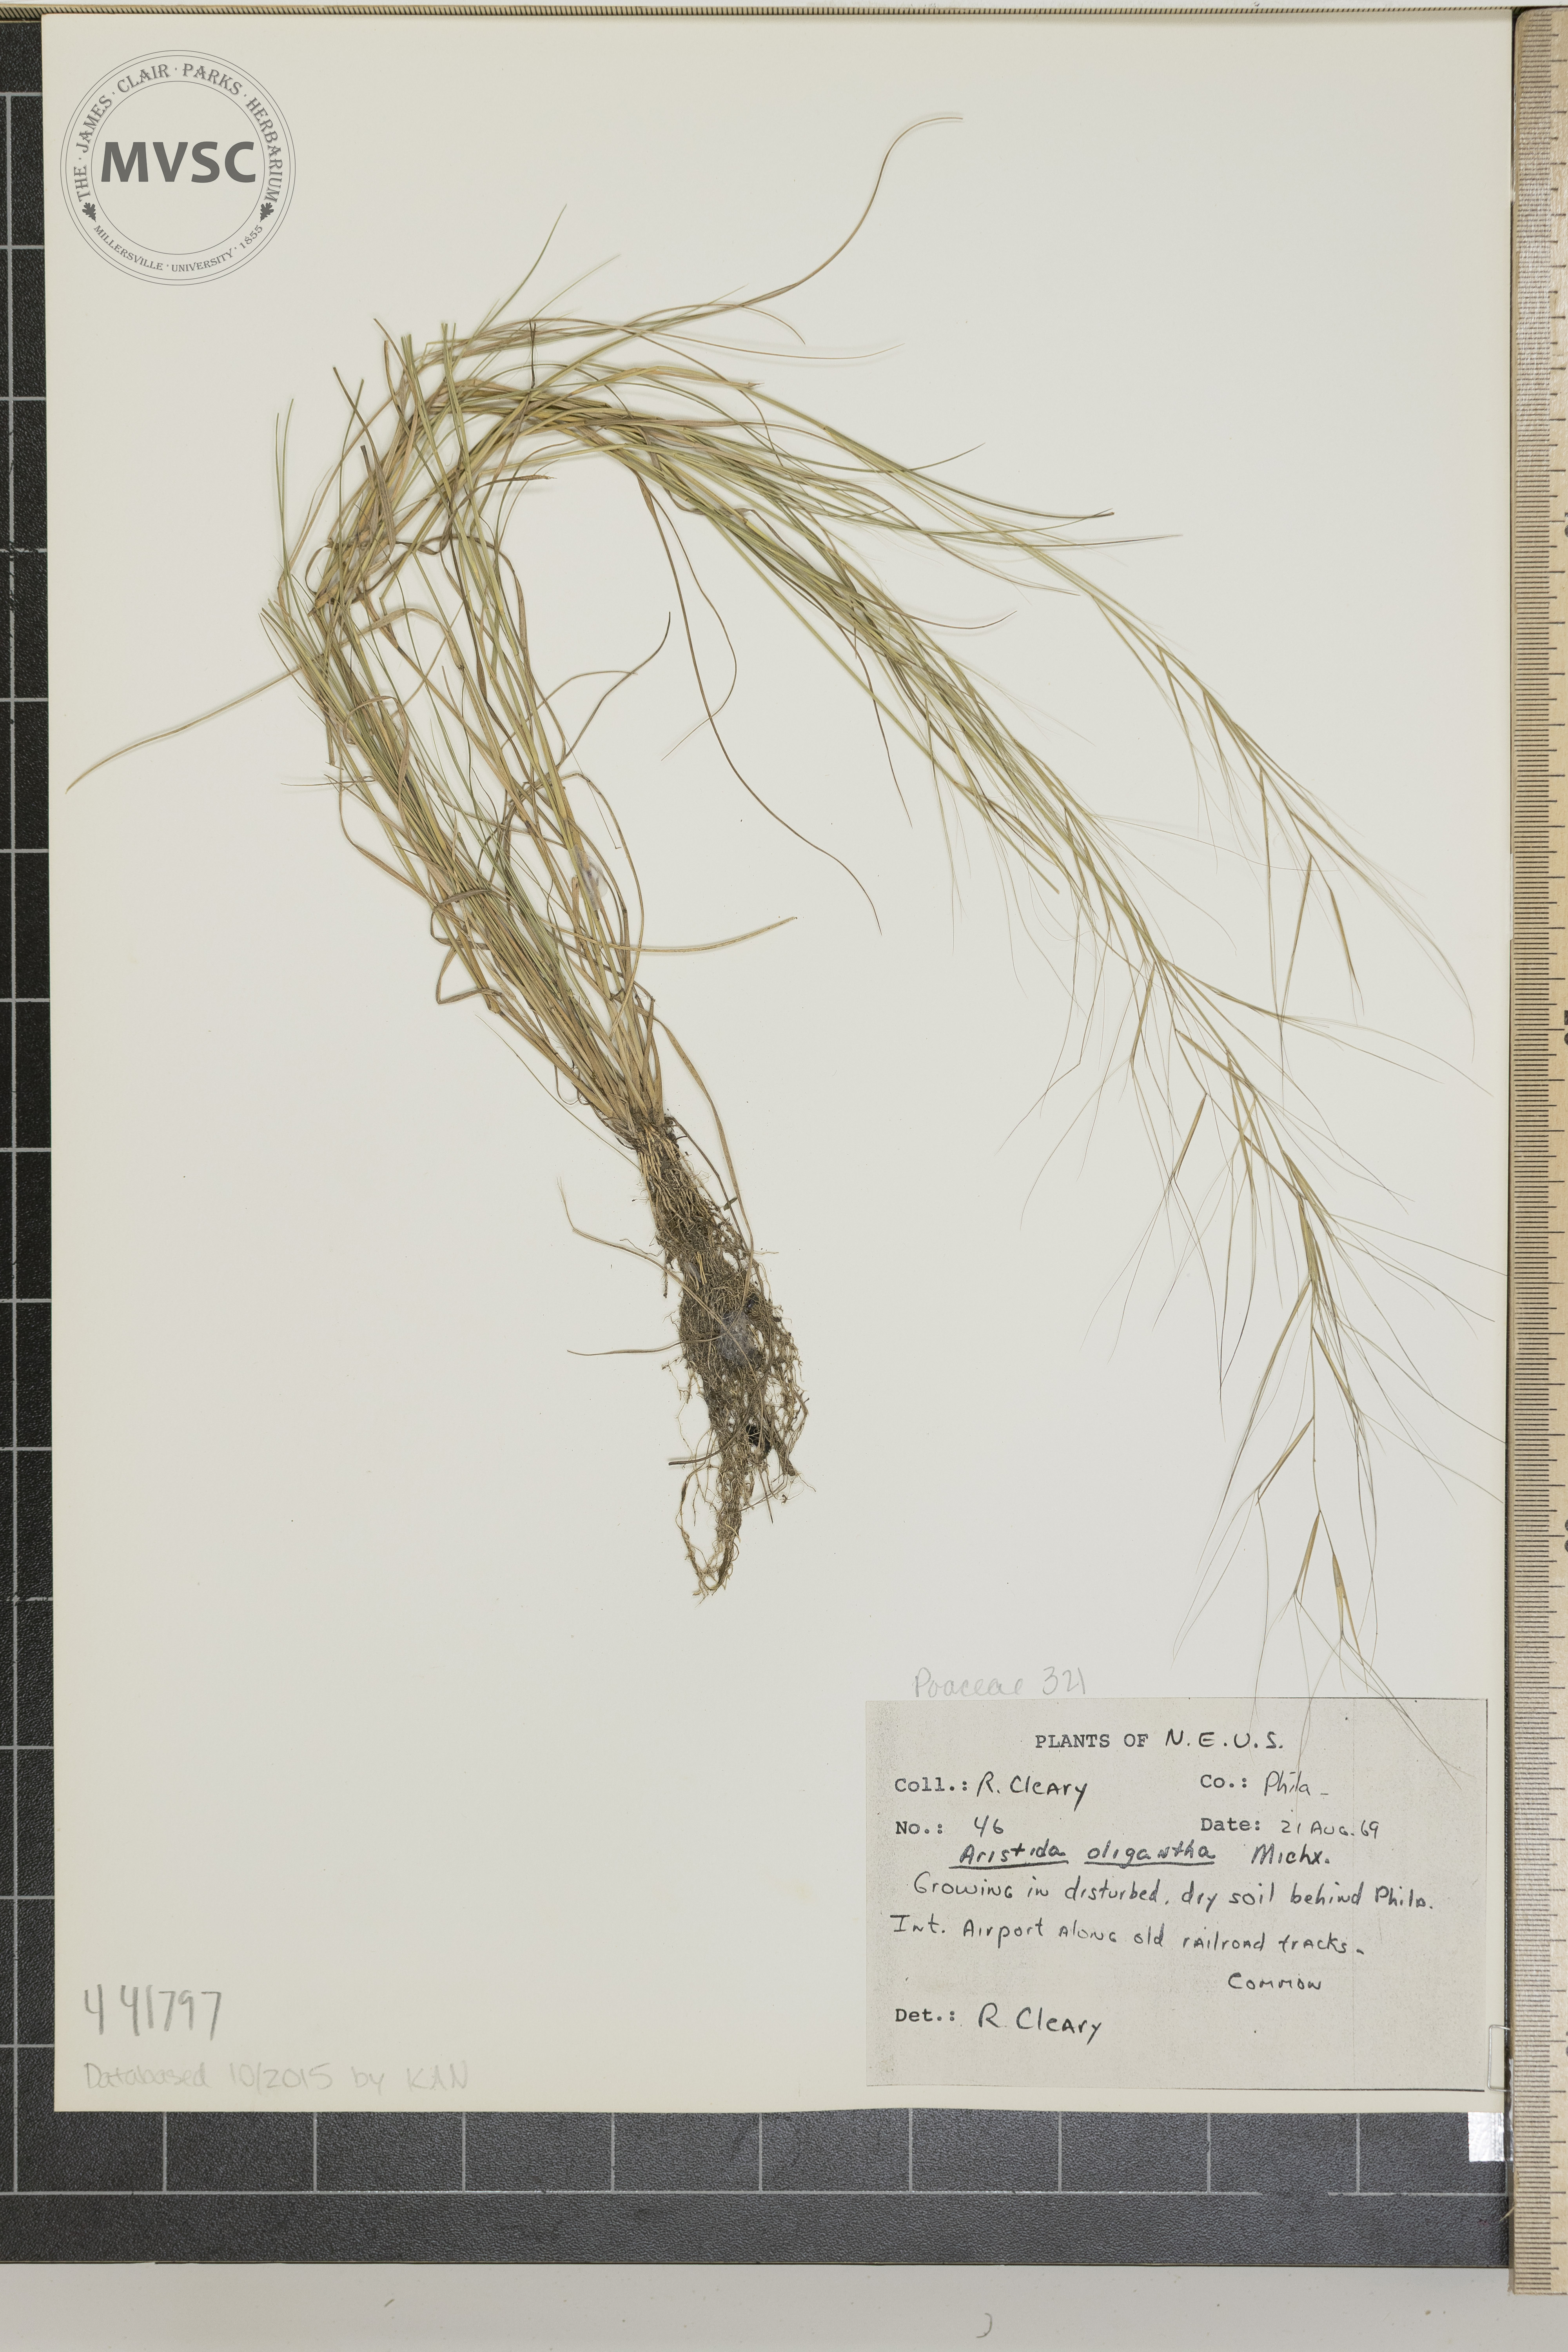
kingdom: Plantae
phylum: Tracheophyta
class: Liliopsida
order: Poales
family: Poaceae
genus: Aristida
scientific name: Aristida oligantha
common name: Few-flowered aristida
